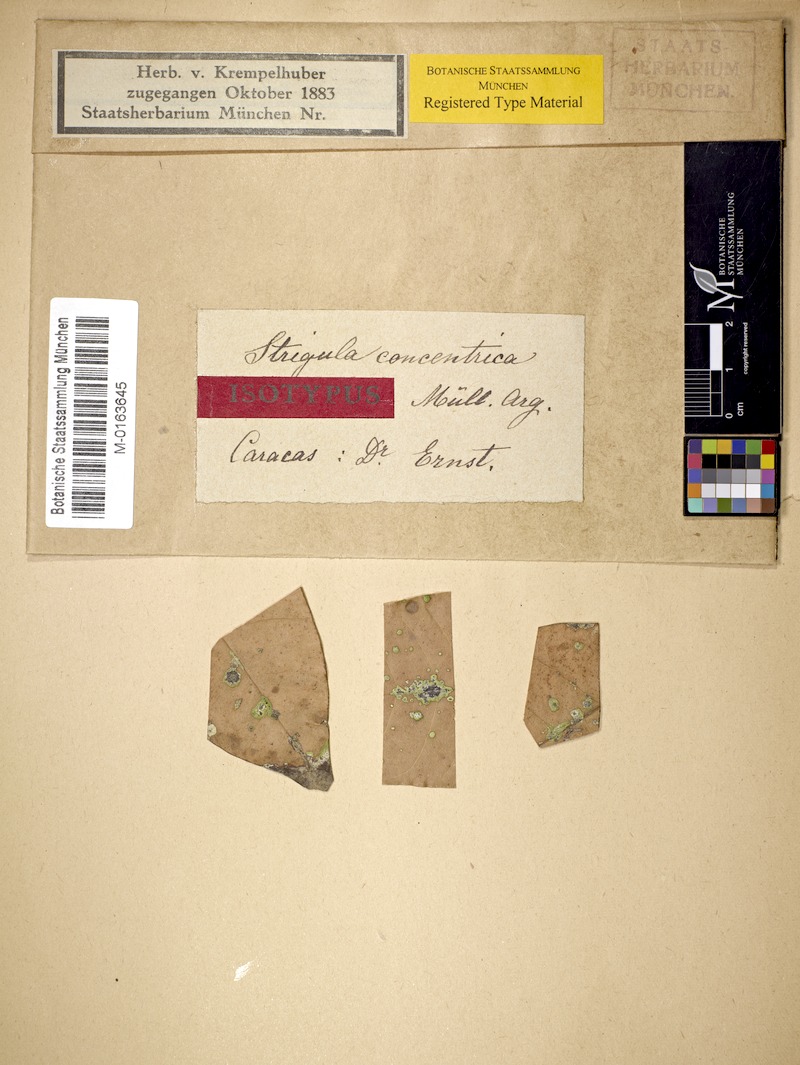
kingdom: Fungi
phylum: Ascomycota
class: Dothideomycetes
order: Strigulales
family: Strigulaceae
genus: Strigula
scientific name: Strigula
